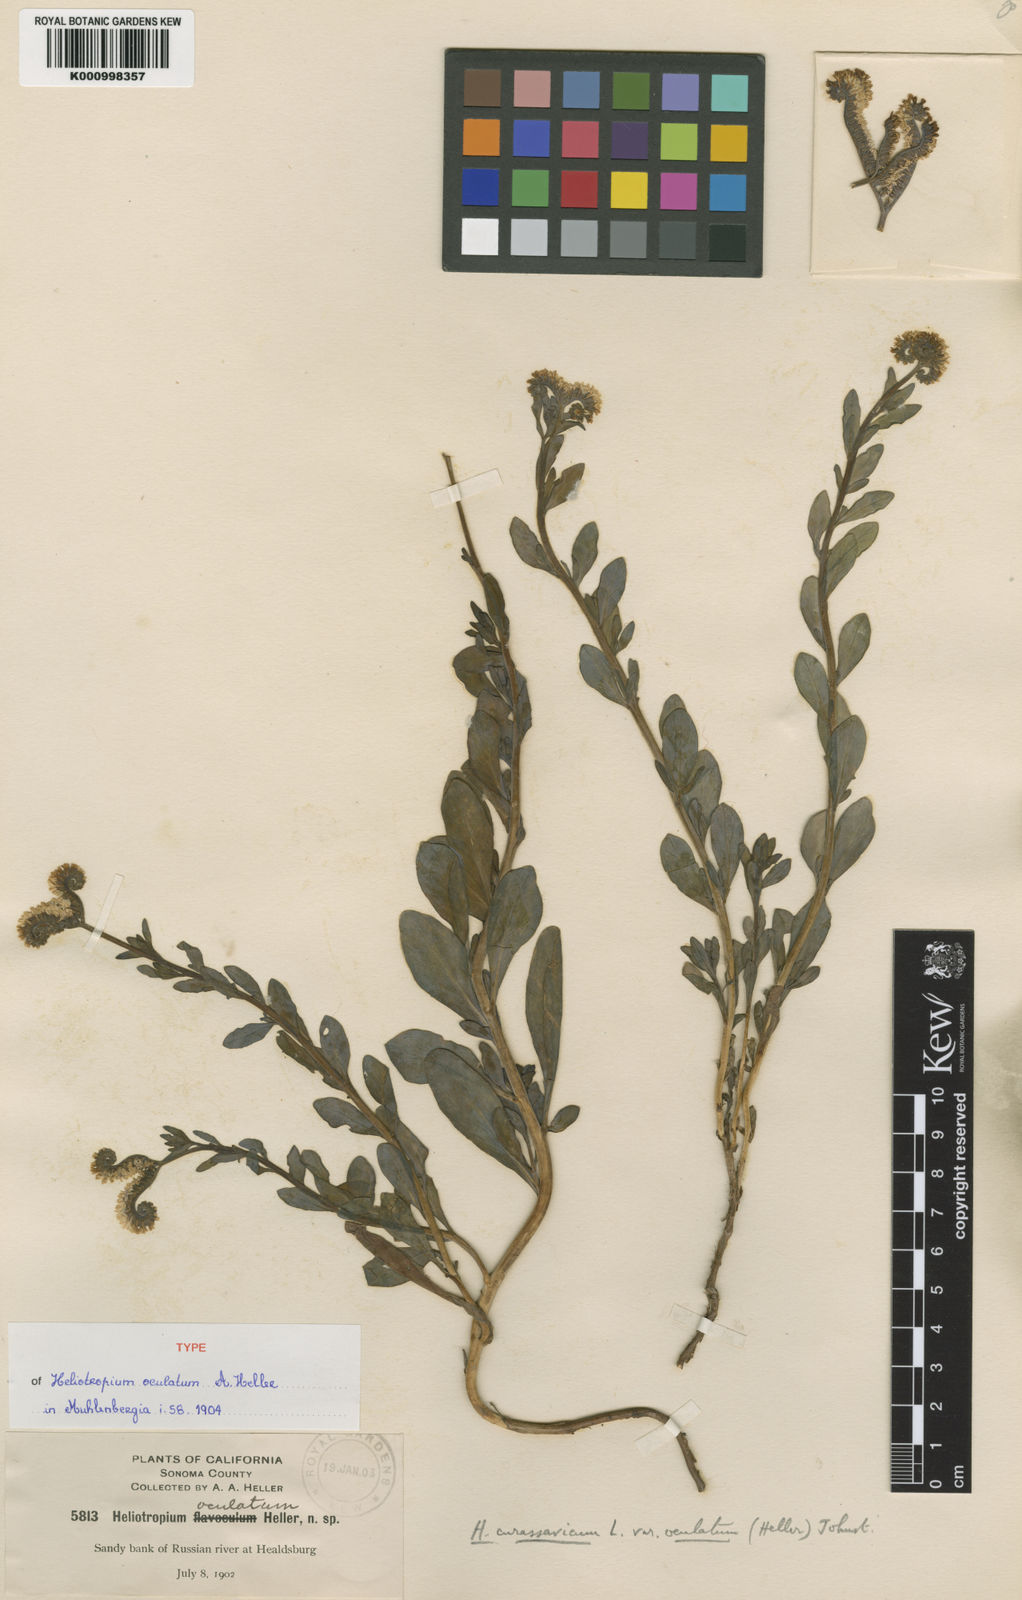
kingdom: Plantae
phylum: Tracheophyta
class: Magnoliopsida
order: Boraginales
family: Heliotropiaceae
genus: Heliotropium
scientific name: Heliotropium curassavicum
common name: Seaside heliotrope
